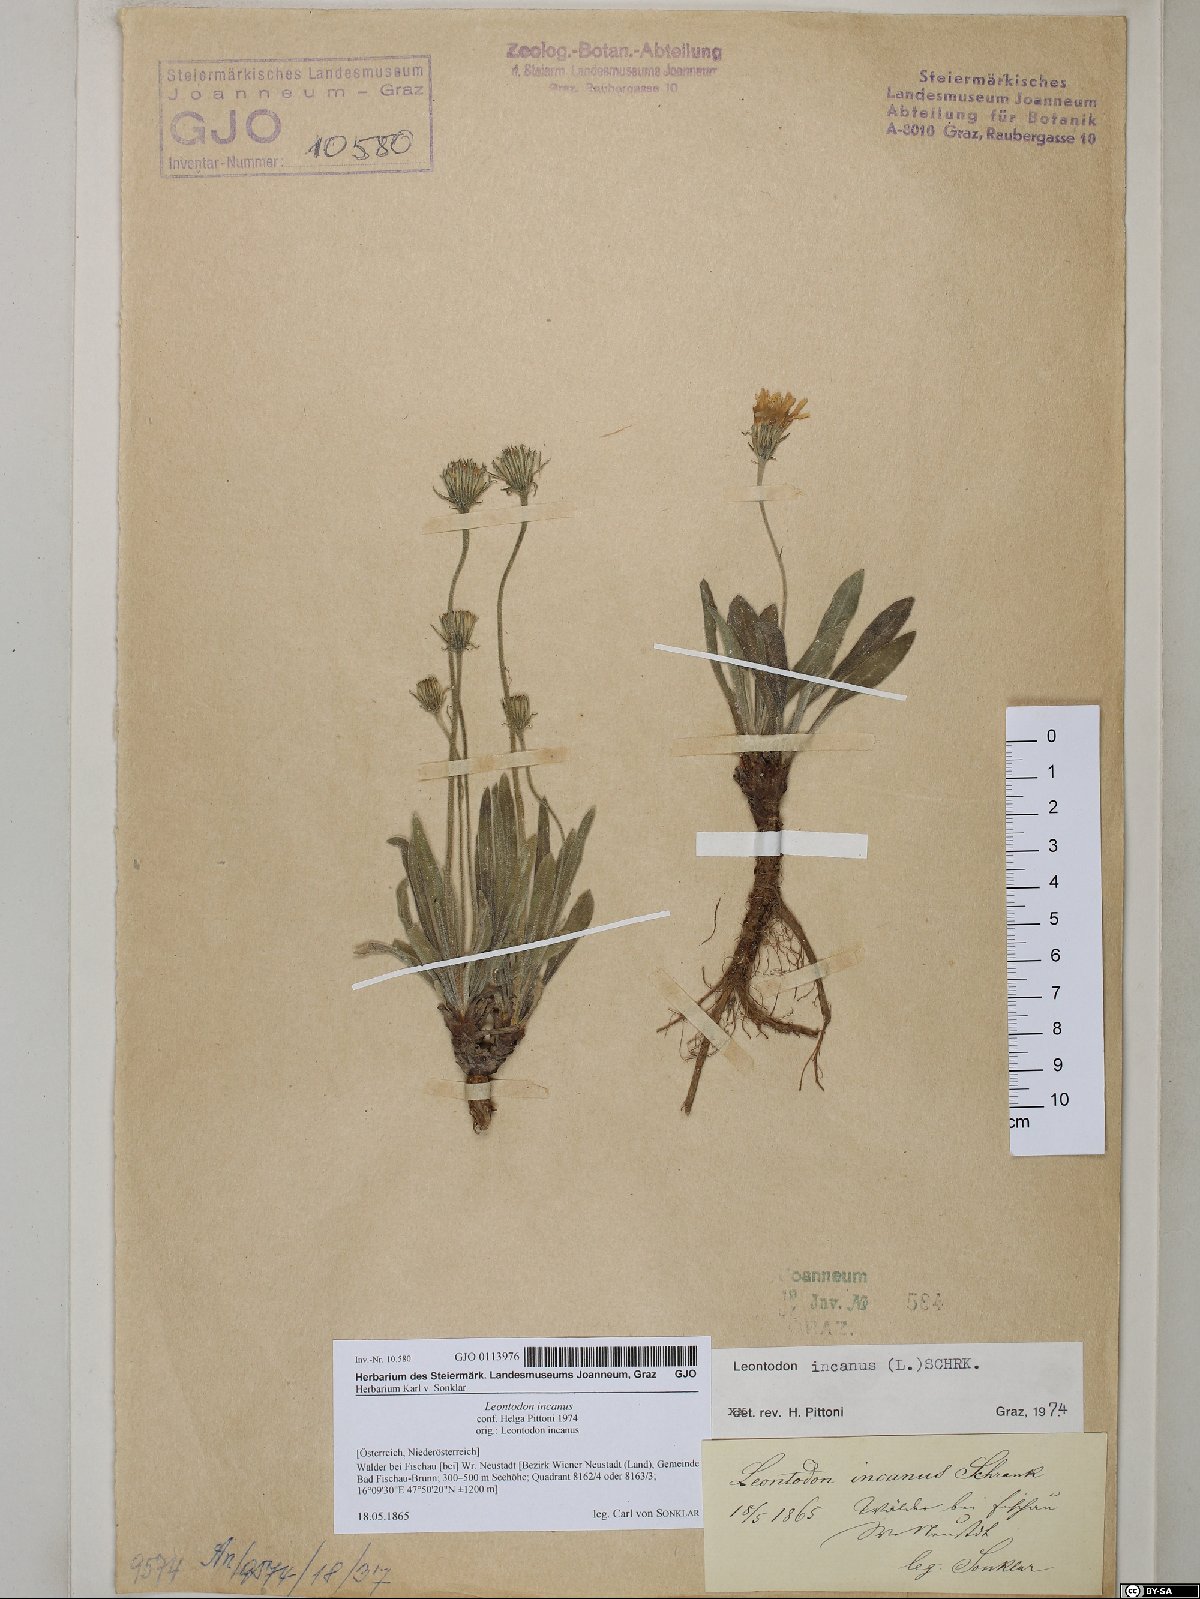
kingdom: Plantae
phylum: Tracheophyta
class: Magnoliopsida
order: Asterales
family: Asteraceae
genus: Leontodon
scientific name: Leontodon incanus
